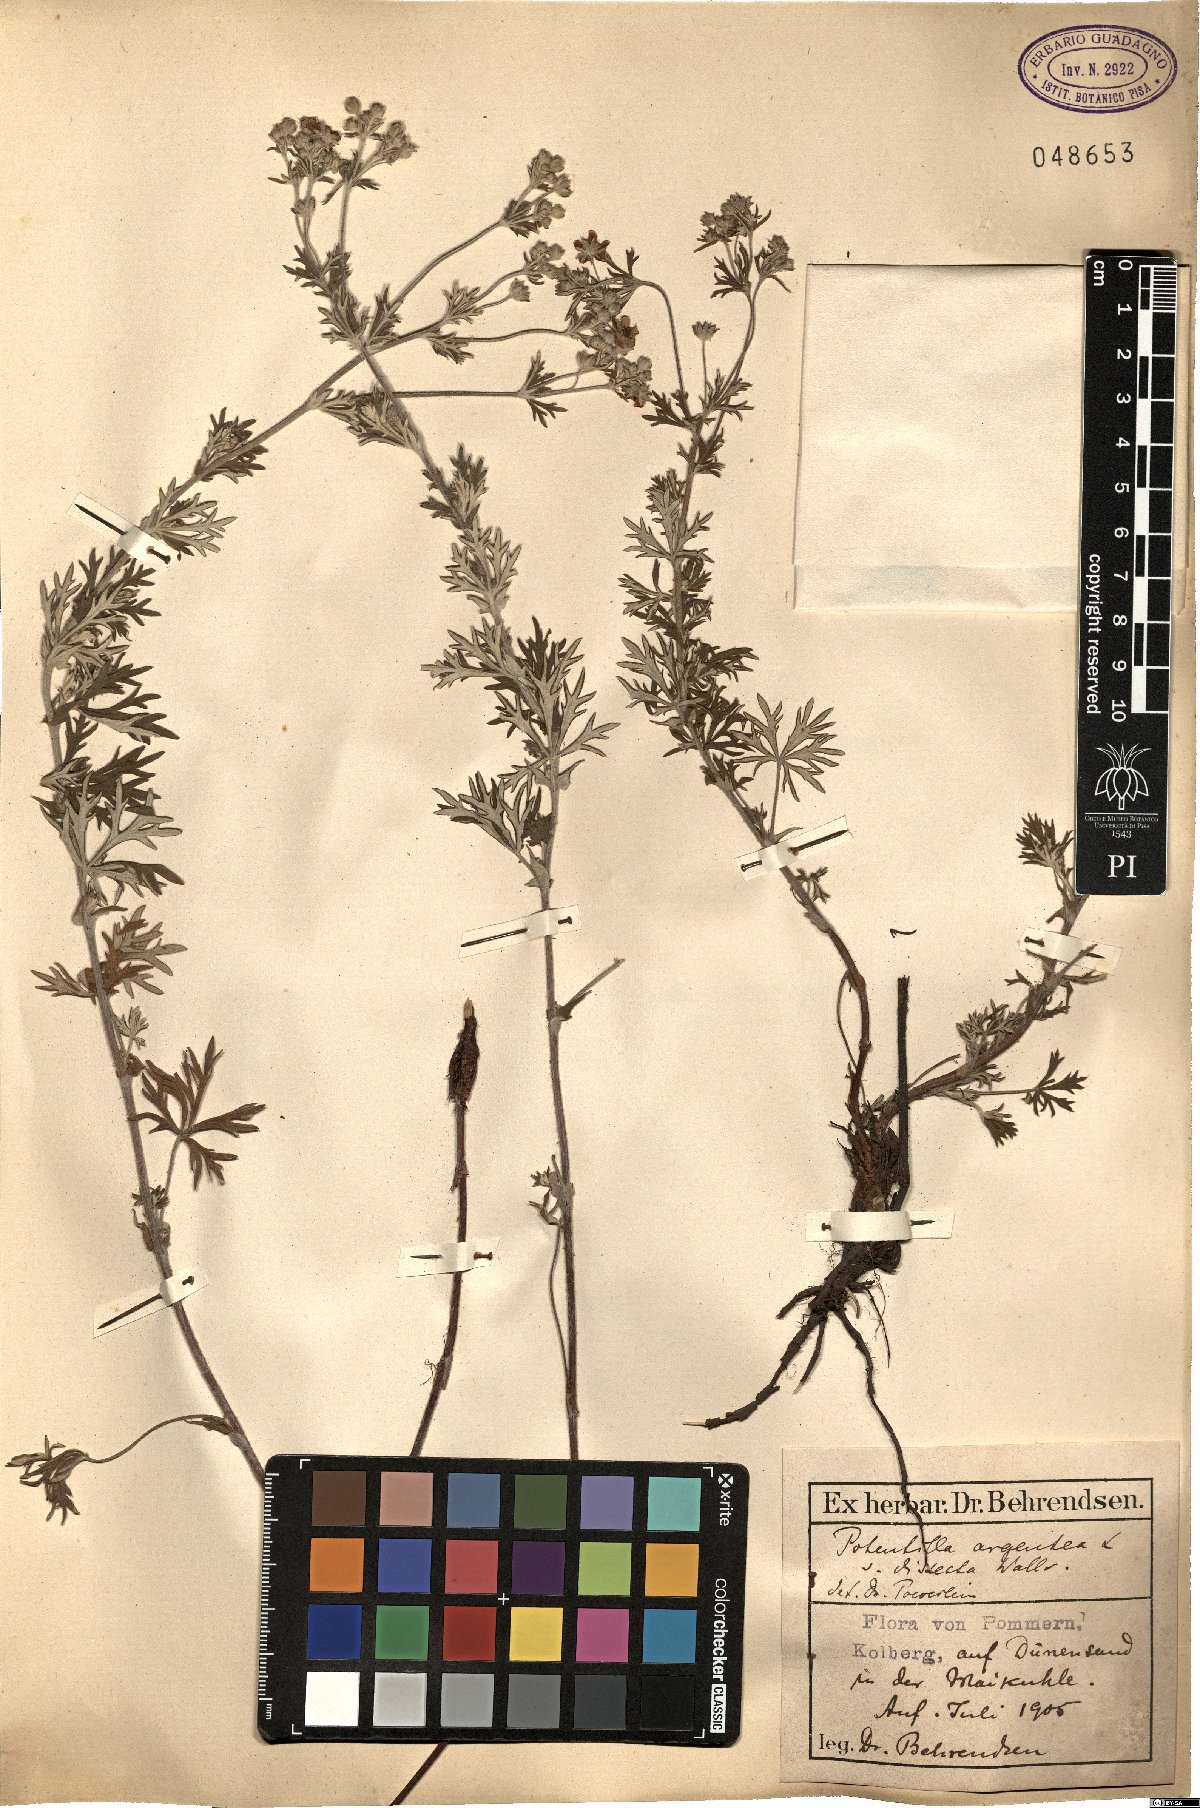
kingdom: Plantae
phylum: Tracheophyta
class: Magnoliopsida
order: Rosales
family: Rosaceae
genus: Potentilla
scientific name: Potentilla neglecta
